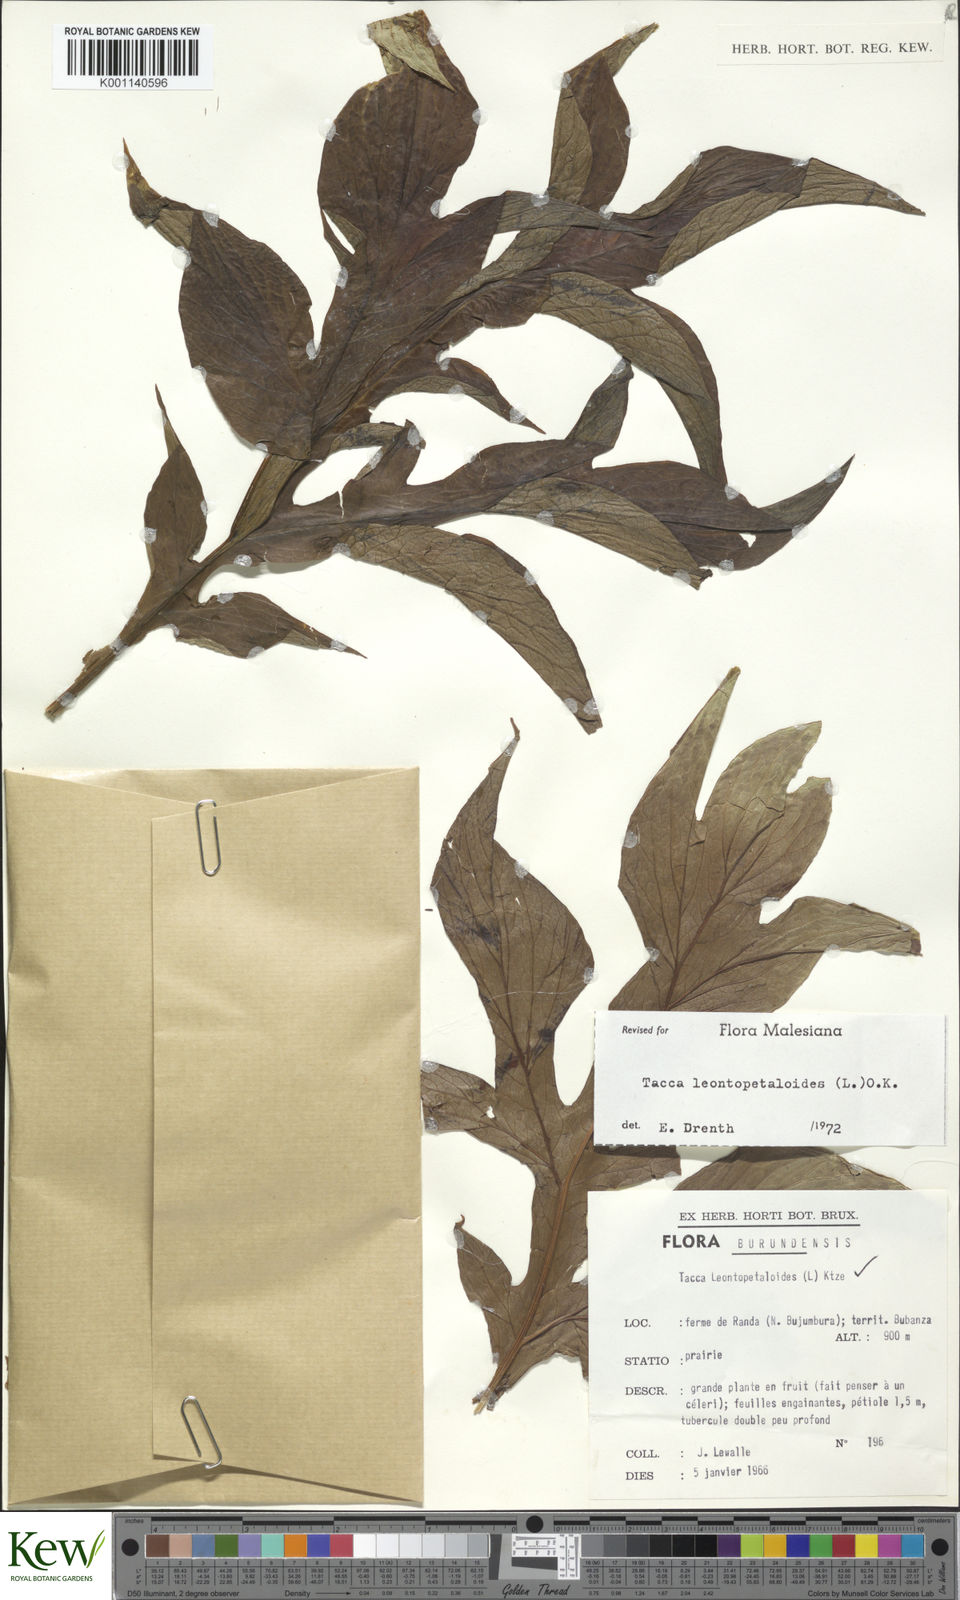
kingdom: Plantae
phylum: Tracheophyta
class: Liliopsida
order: Dioscoreales
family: Dioscoreaceae
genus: Tacca
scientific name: Tacca leontopetaloides
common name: Arrowroot
